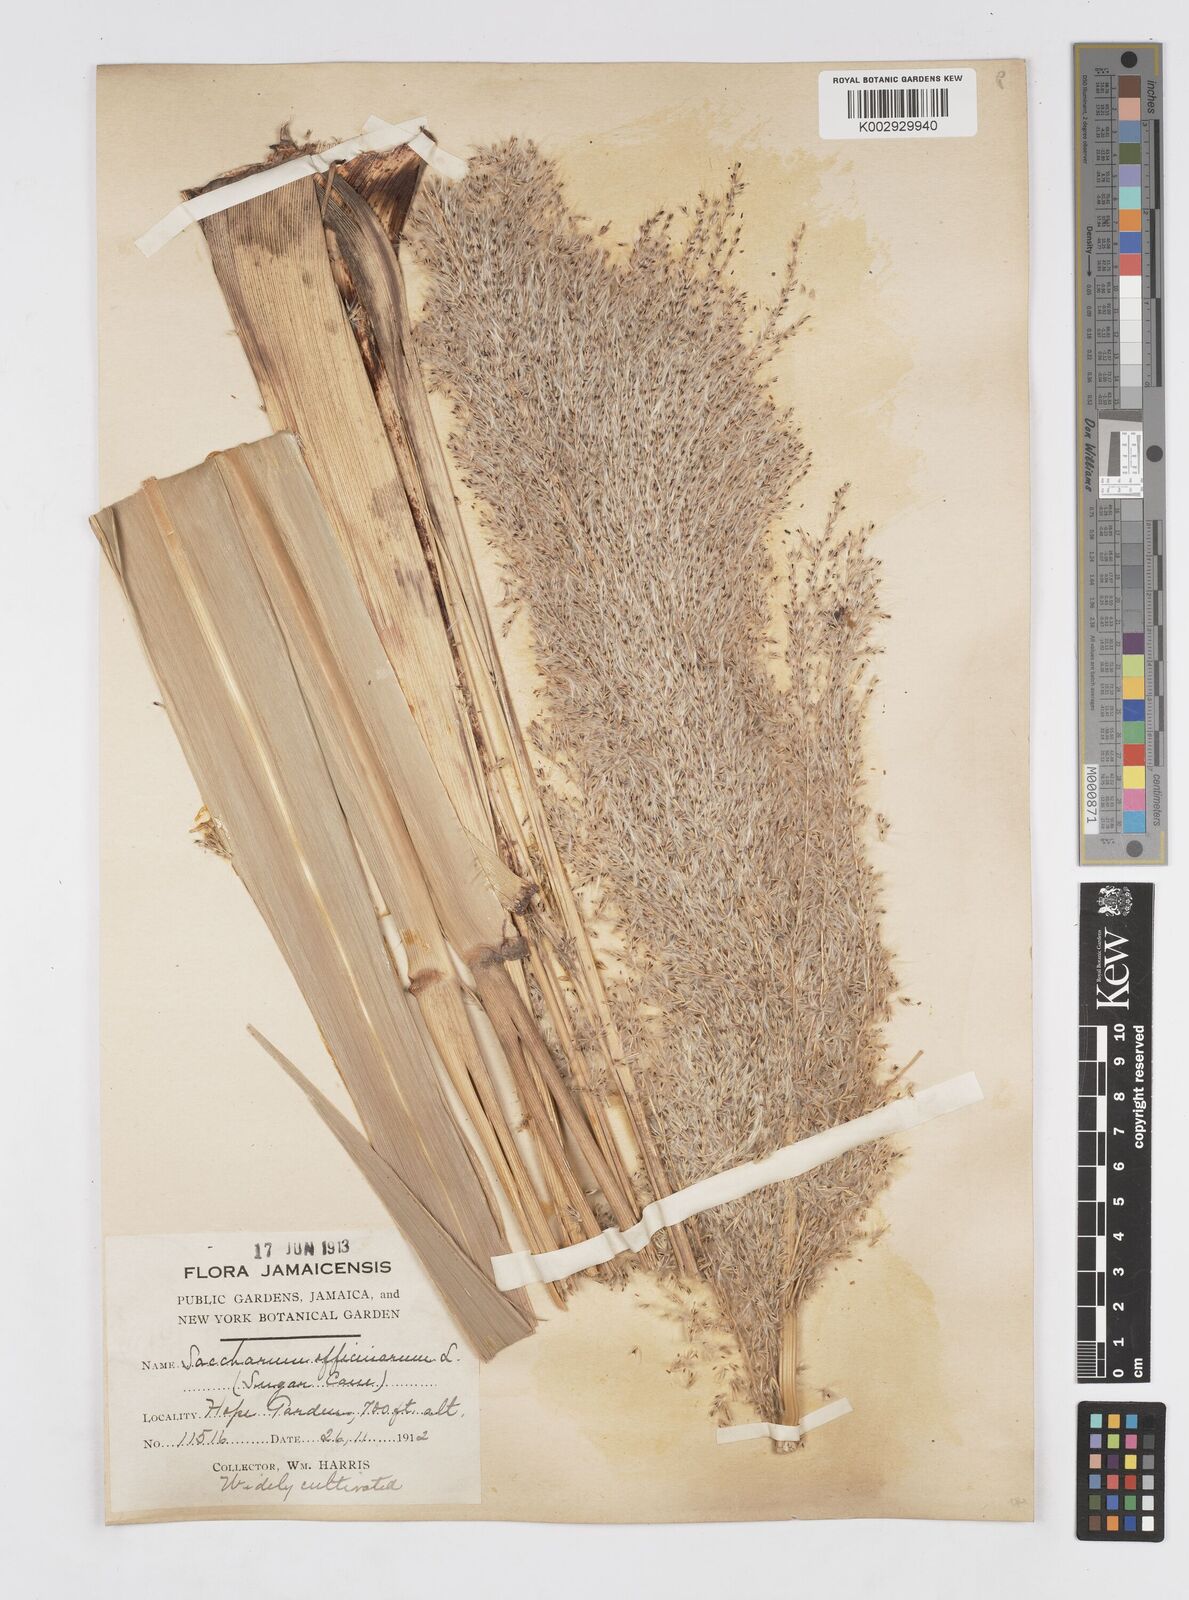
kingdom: Plantae
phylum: Tracheophyta
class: Liliopsida
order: Poales
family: Poaceae
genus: Saccharum
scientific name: Saccharum officinarum
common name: Sugarcane
